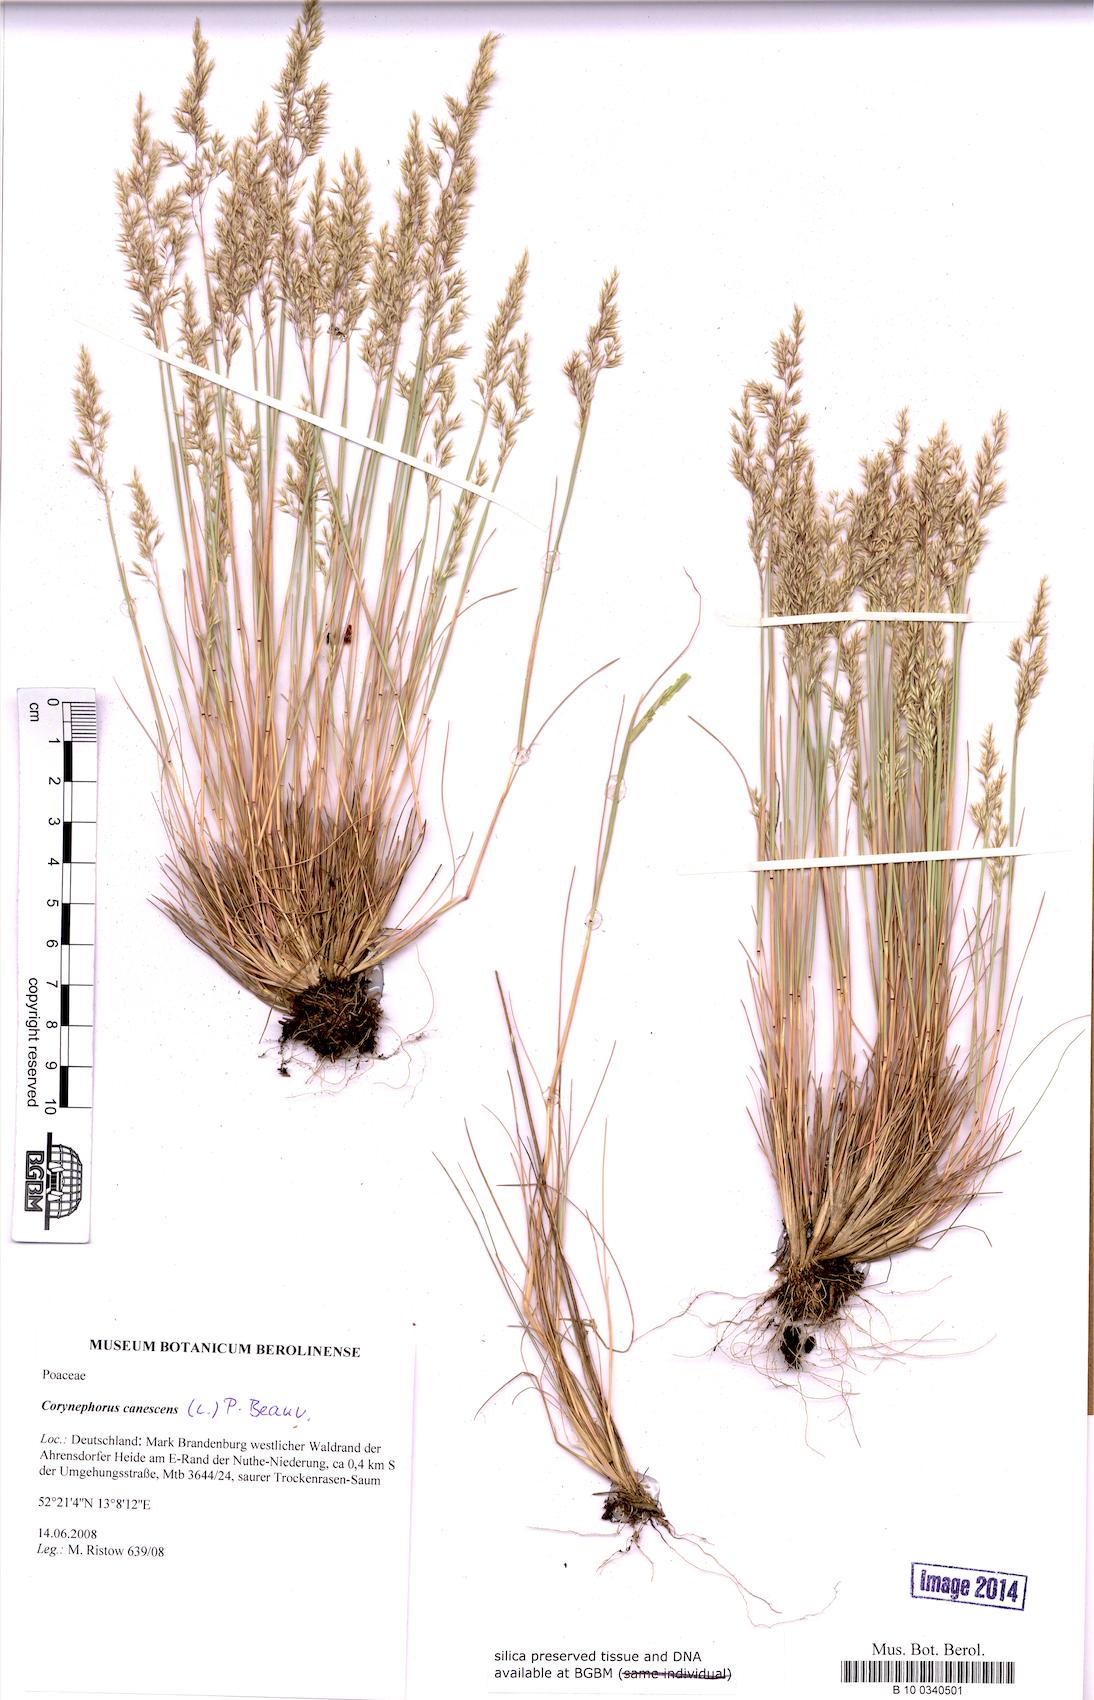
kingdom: Plantae
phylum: Tracheophyta
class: Liliopsida
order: Poales
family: Poaceae
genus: Corynephorus
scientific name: Corynephorus canescens
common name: Grey hair-grass
